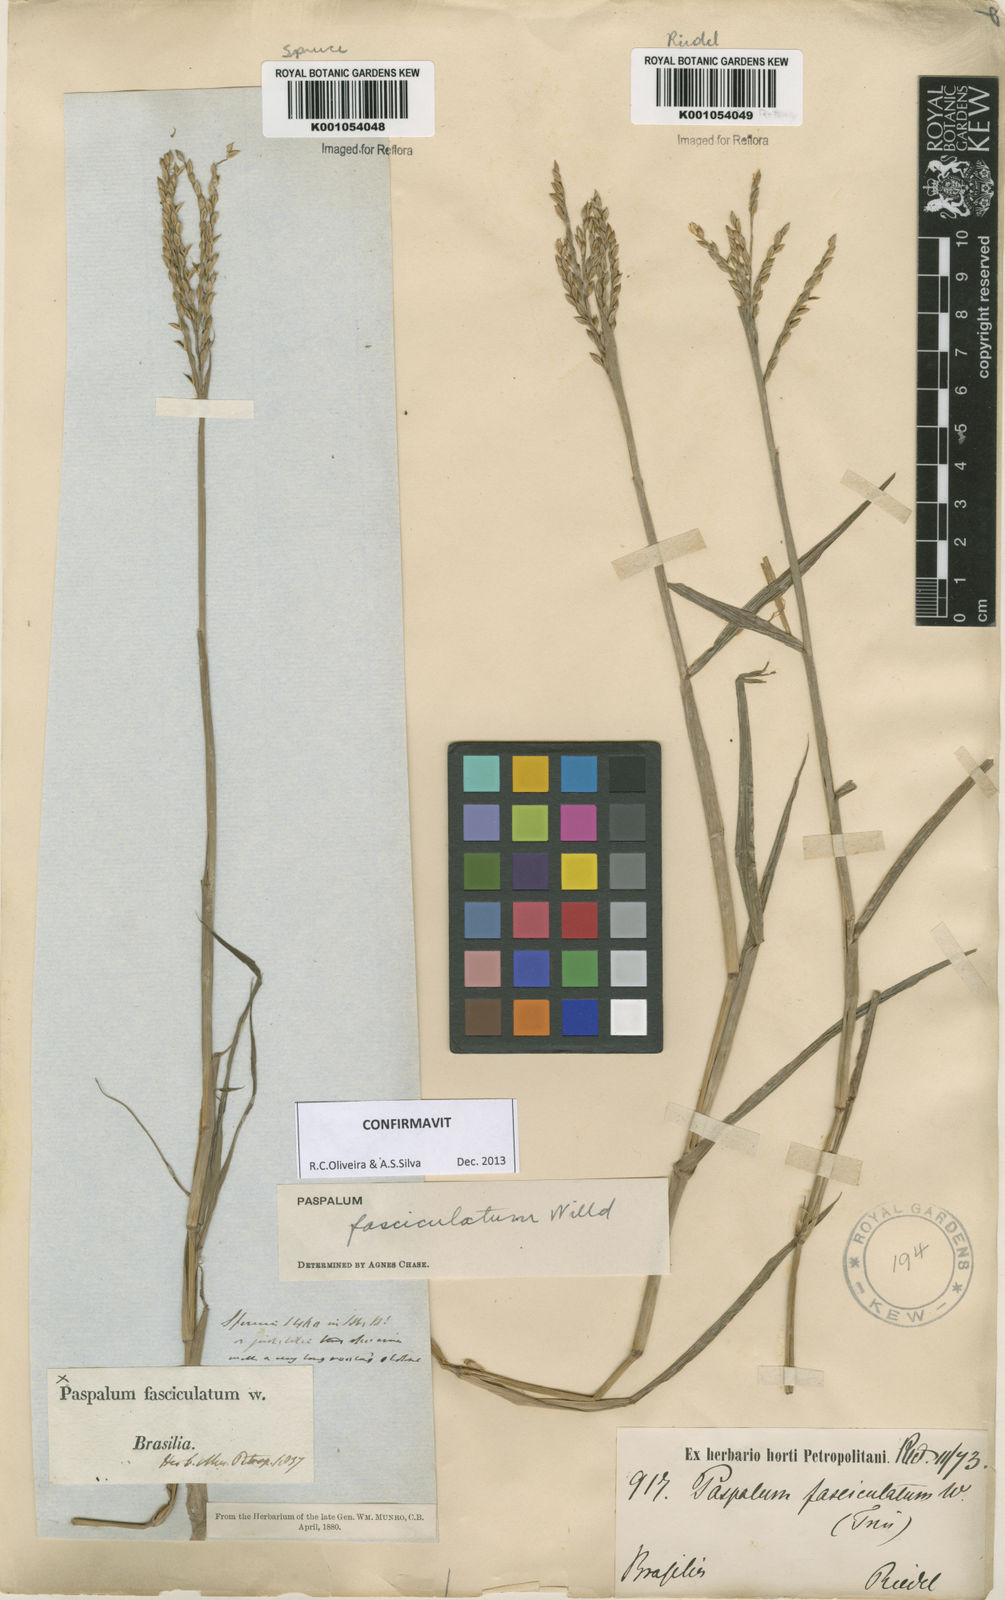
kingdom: Plantae
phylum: Tracheophyta
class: Liliopsida
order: Poales
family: Poaceae
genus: Paspalum
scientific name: Paspalum
